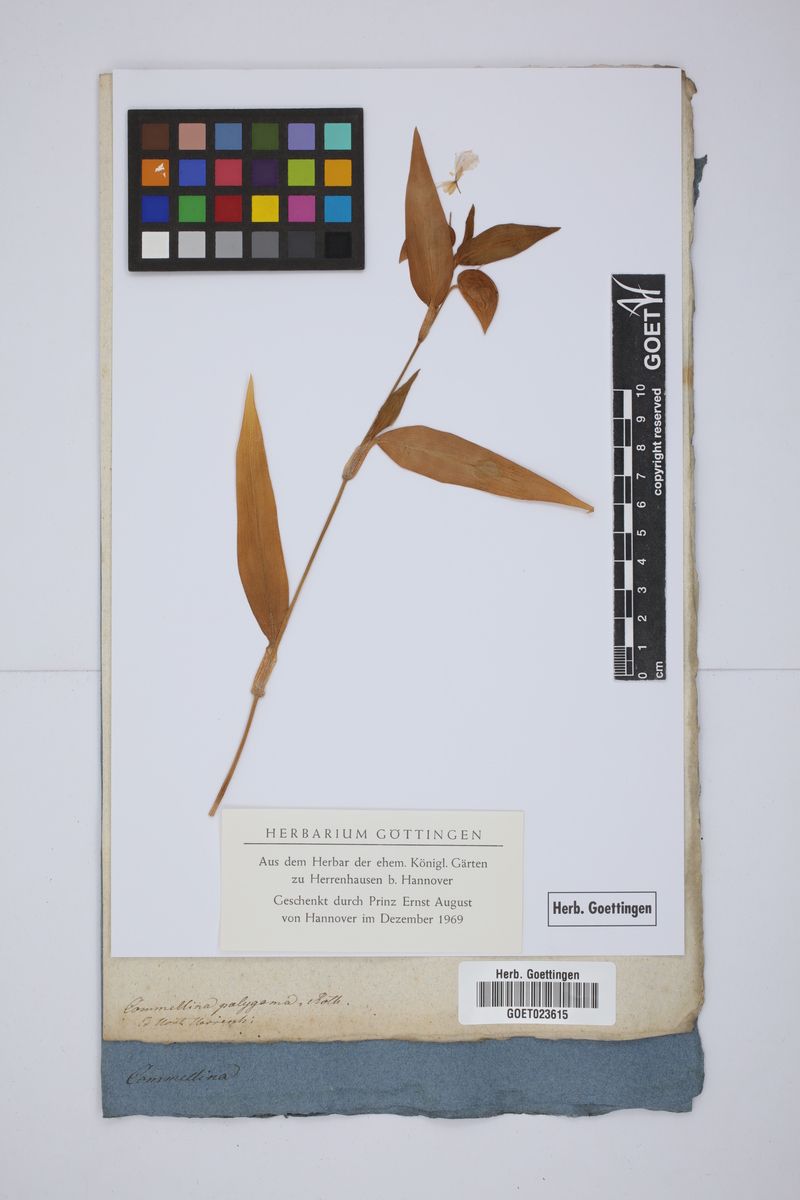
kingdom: Plantae
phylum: Tracheophyta
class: Liliopsida
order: Commelinales
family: Commelinaceae
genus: Commelina
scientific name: Commelina communis
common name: Asiatic dayflower
